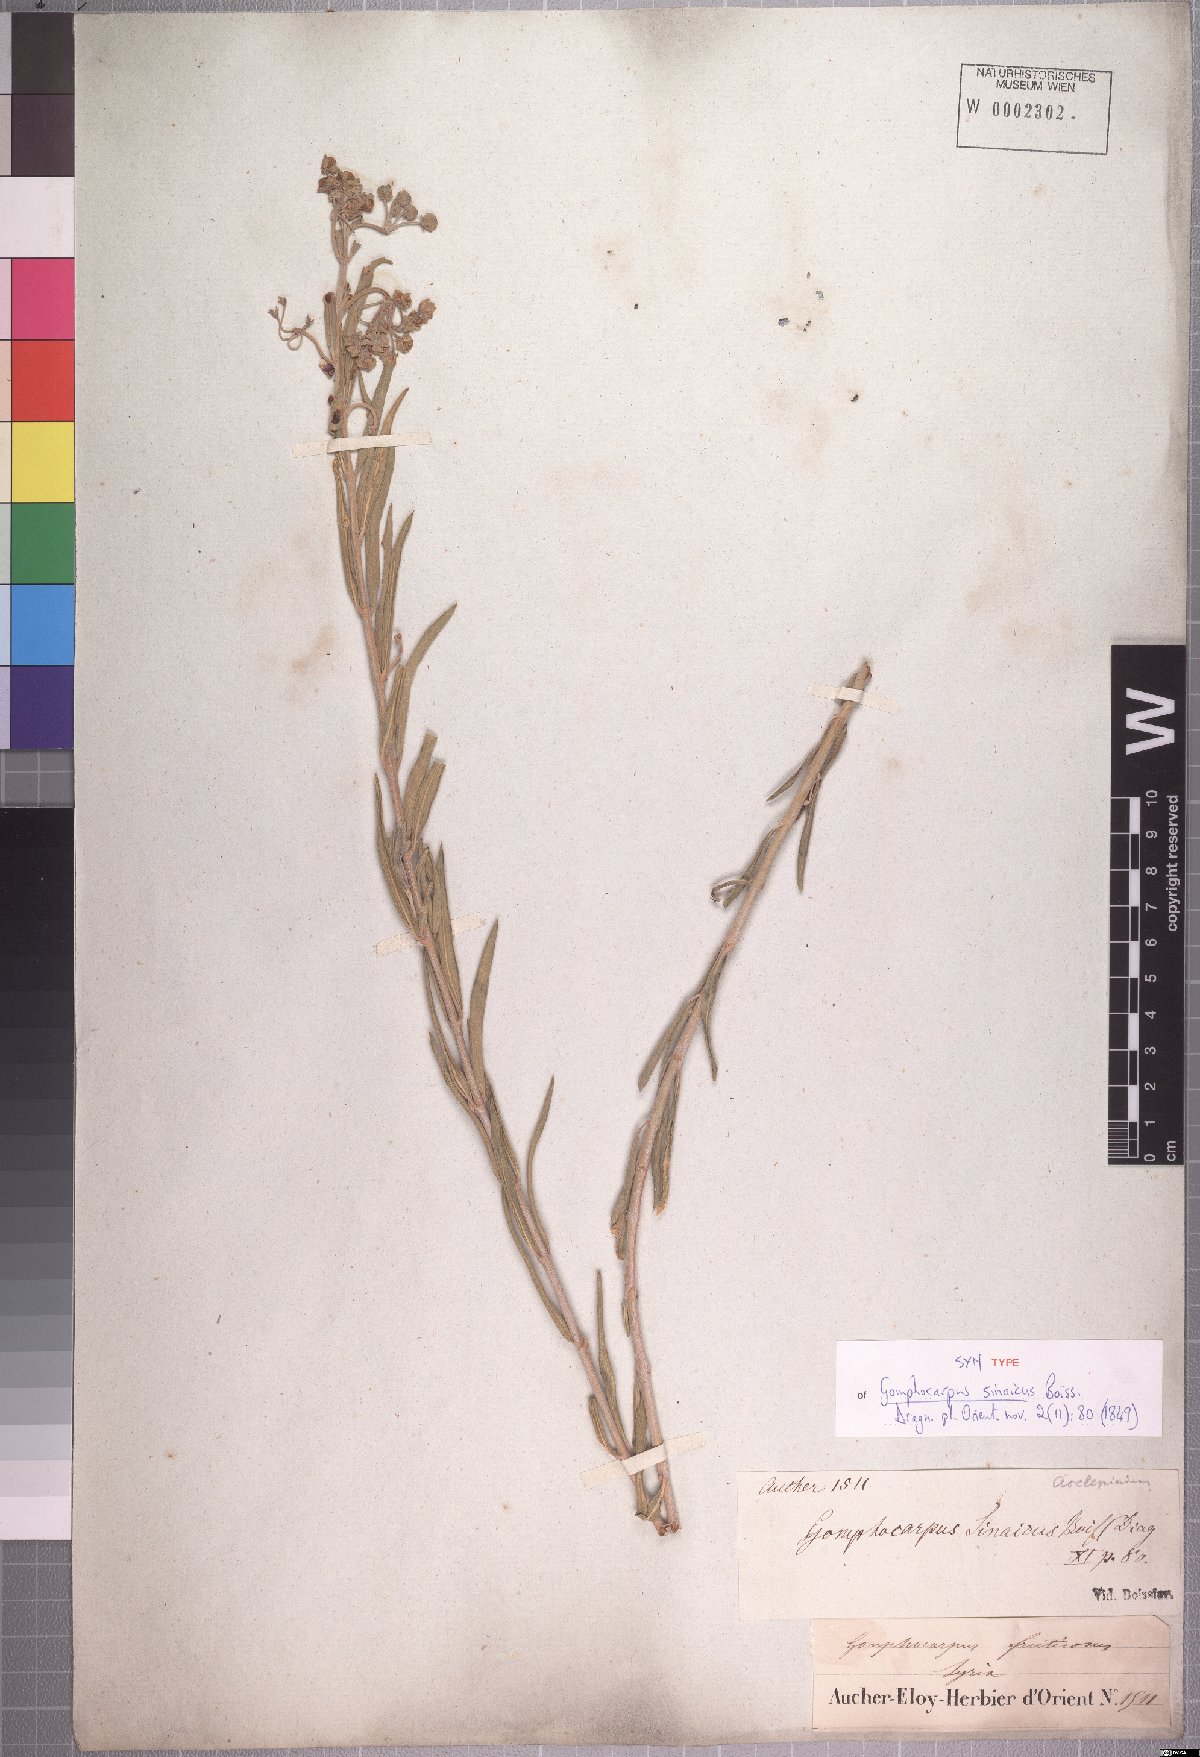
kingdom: Plantae
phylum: Tracheophyta
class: Magnoliopsida
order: Gentianales
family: Apocynaceae
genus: Gomphocarpus
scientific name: Gomphocarpus sinaicus
